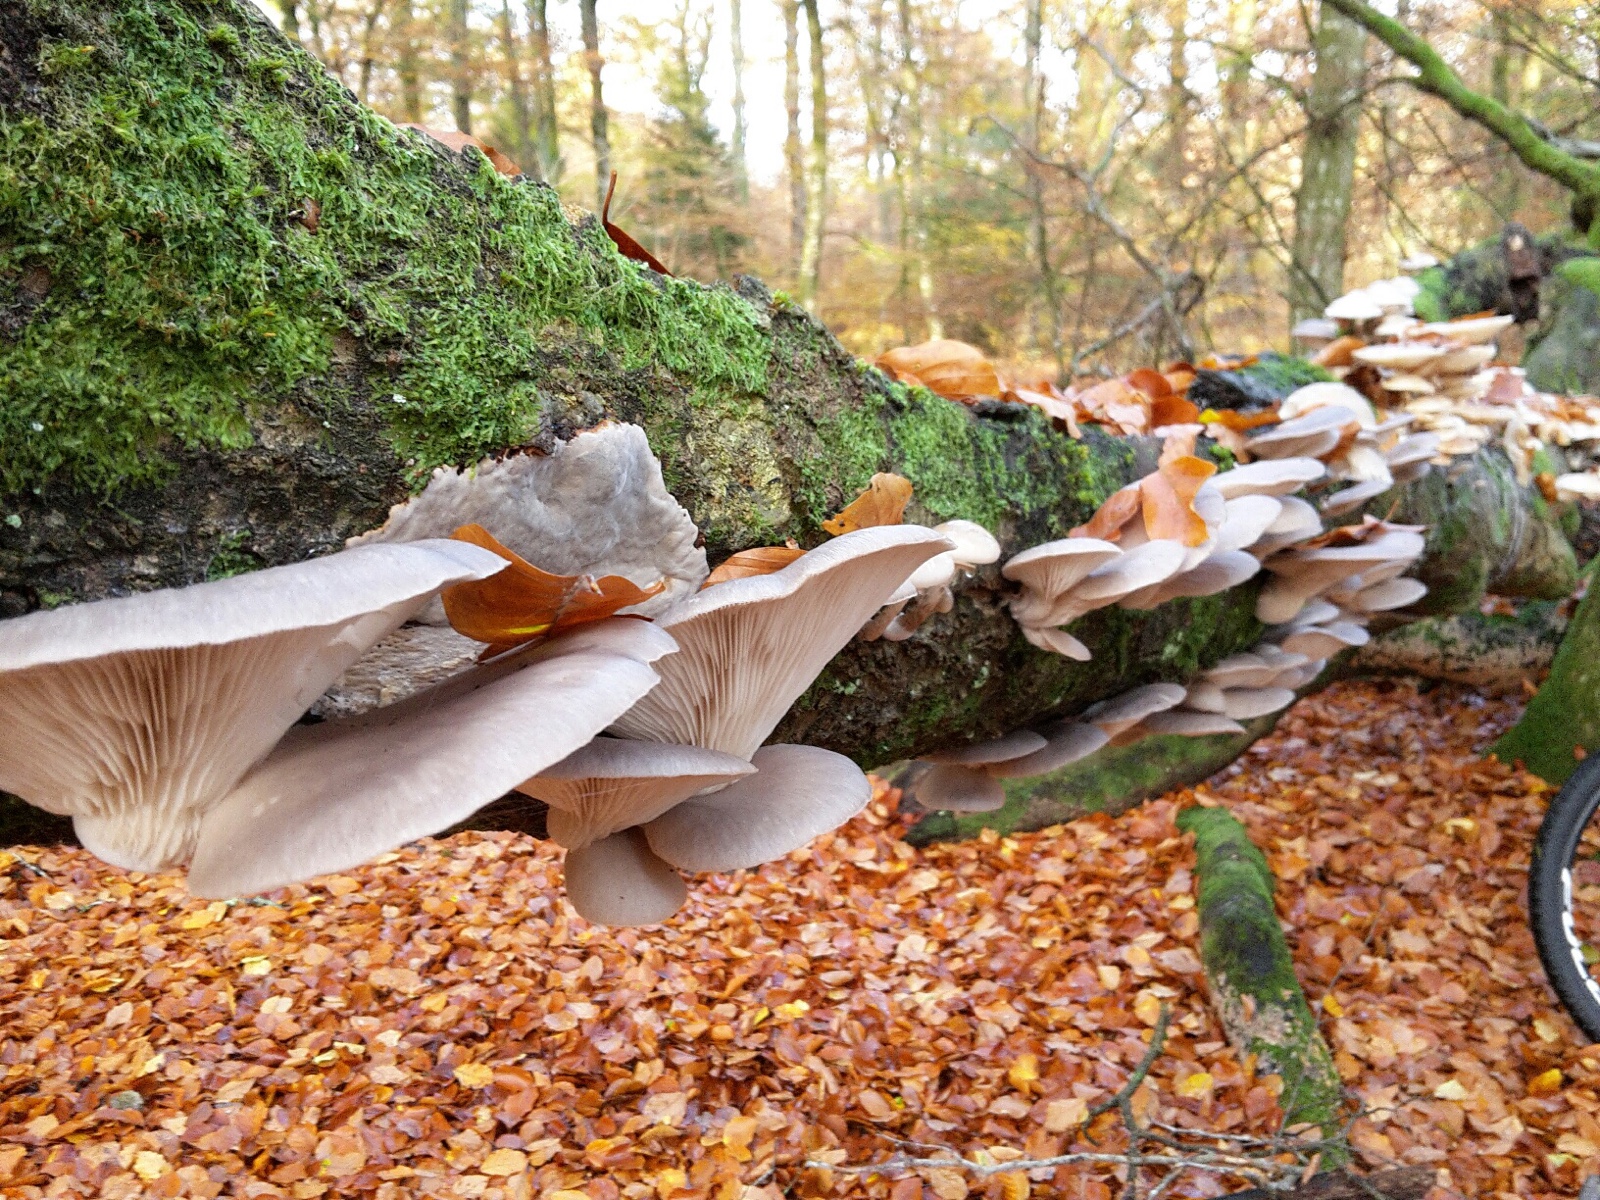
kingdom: Fungi
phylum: Basidiomycota
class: Agaricomycetes
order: Agaricales
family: Pleurotaceae
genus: Pleurotus
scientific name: Pleurotus ostreatus
